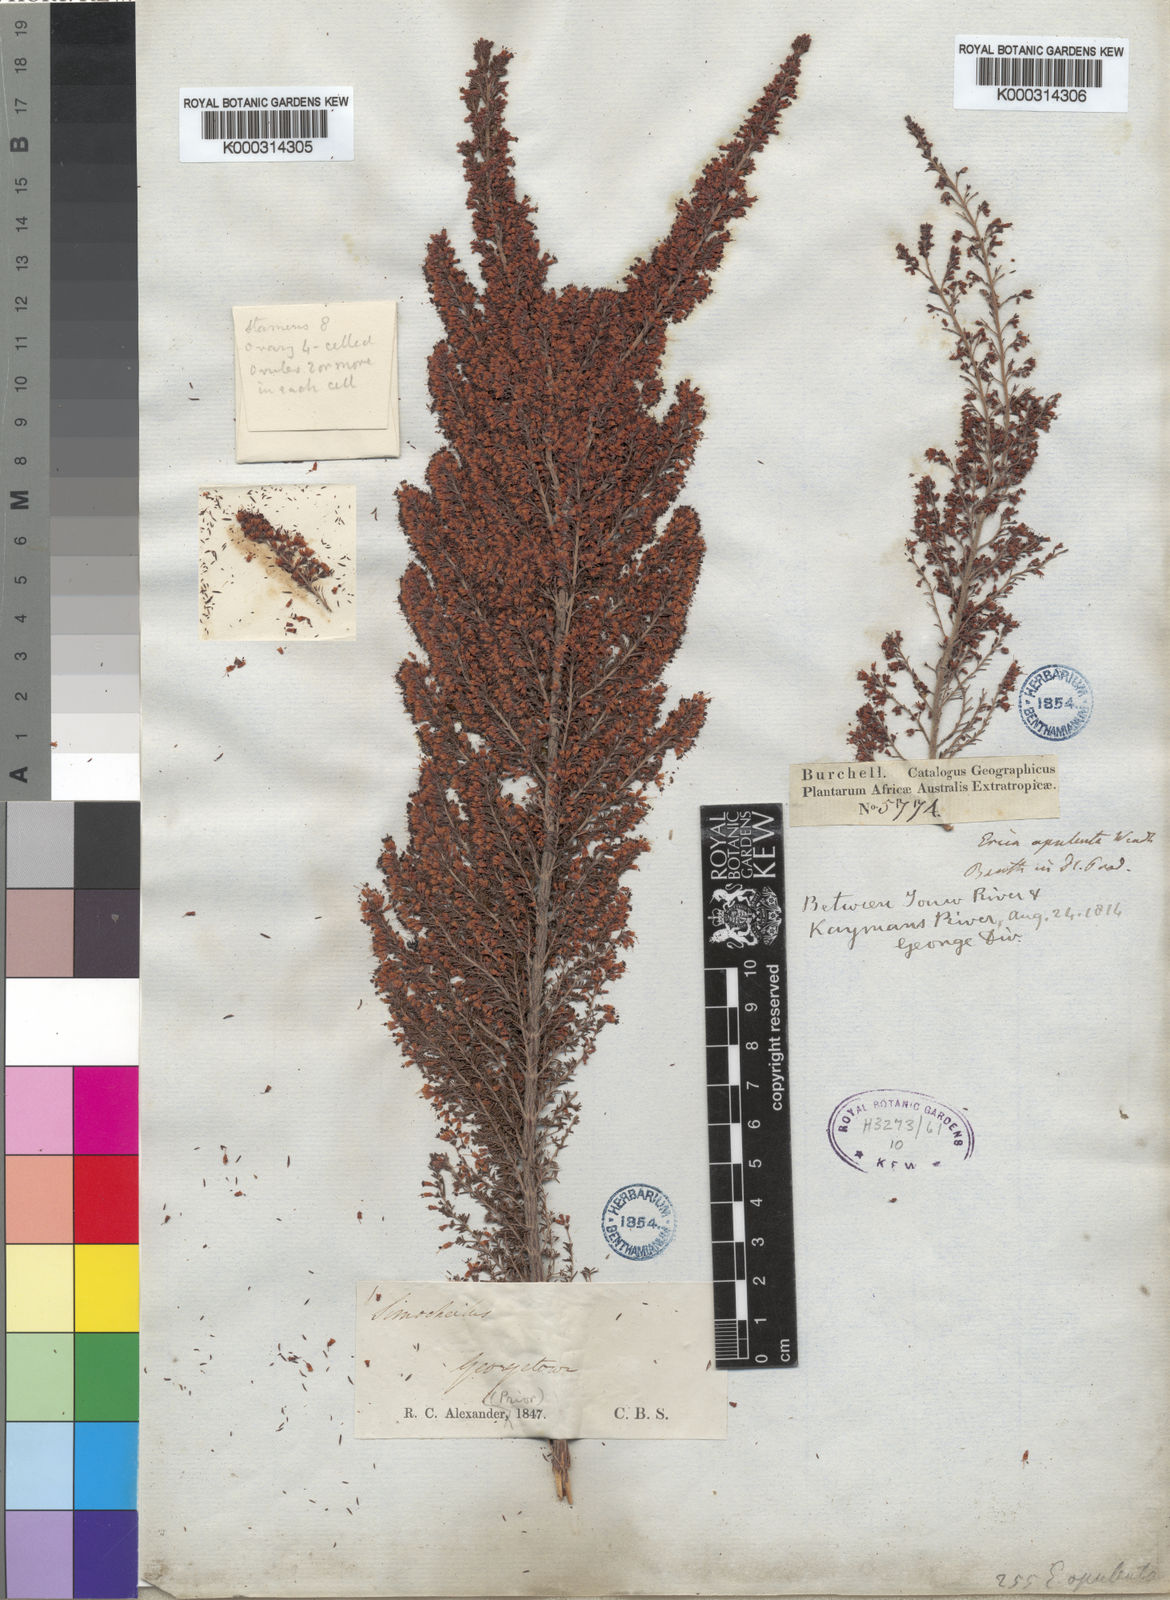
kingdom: Plantae
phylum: Tracheophyta
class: Magnoliopsida
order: Ericales
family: Ericaceae
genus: Erica
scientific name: Erica opulenta
